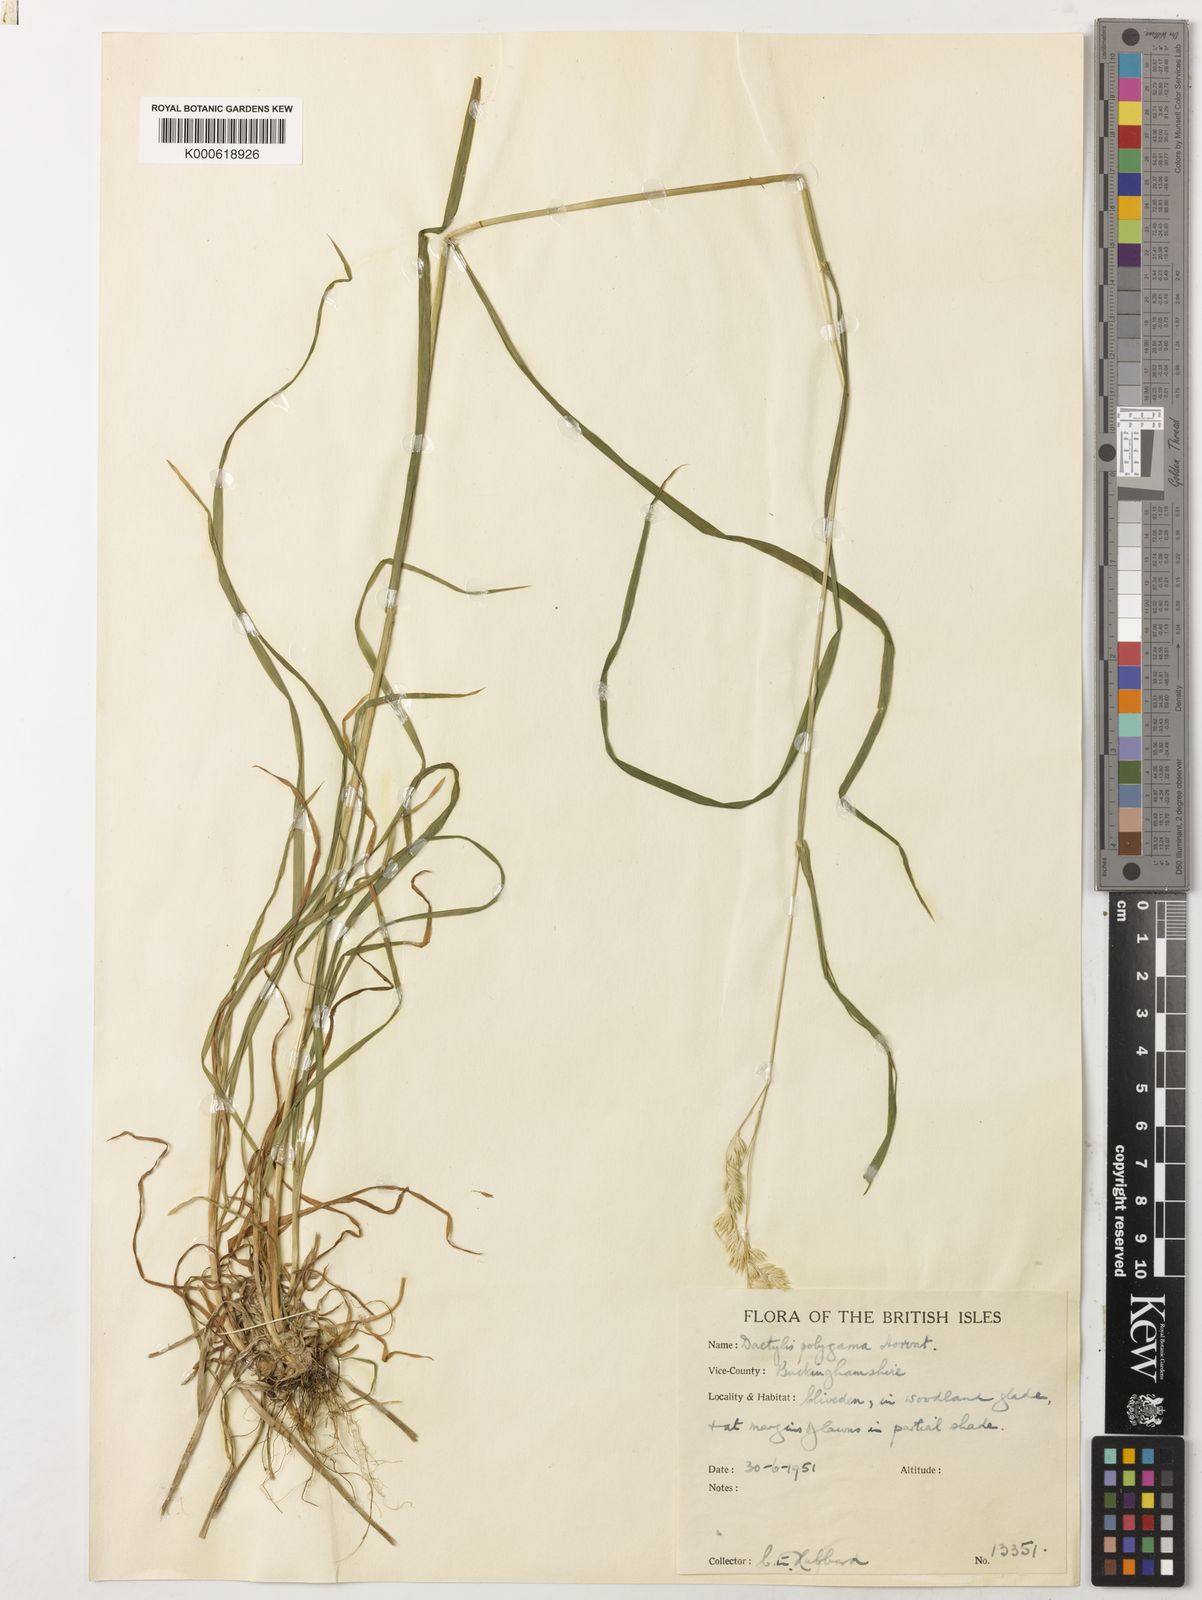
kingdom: Plantae
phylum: Tracheophyta
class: Liliopsida
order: Poales
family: Poaceae
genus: Dactylis
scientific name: Dactylis glomerata
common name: Orchardgrass
